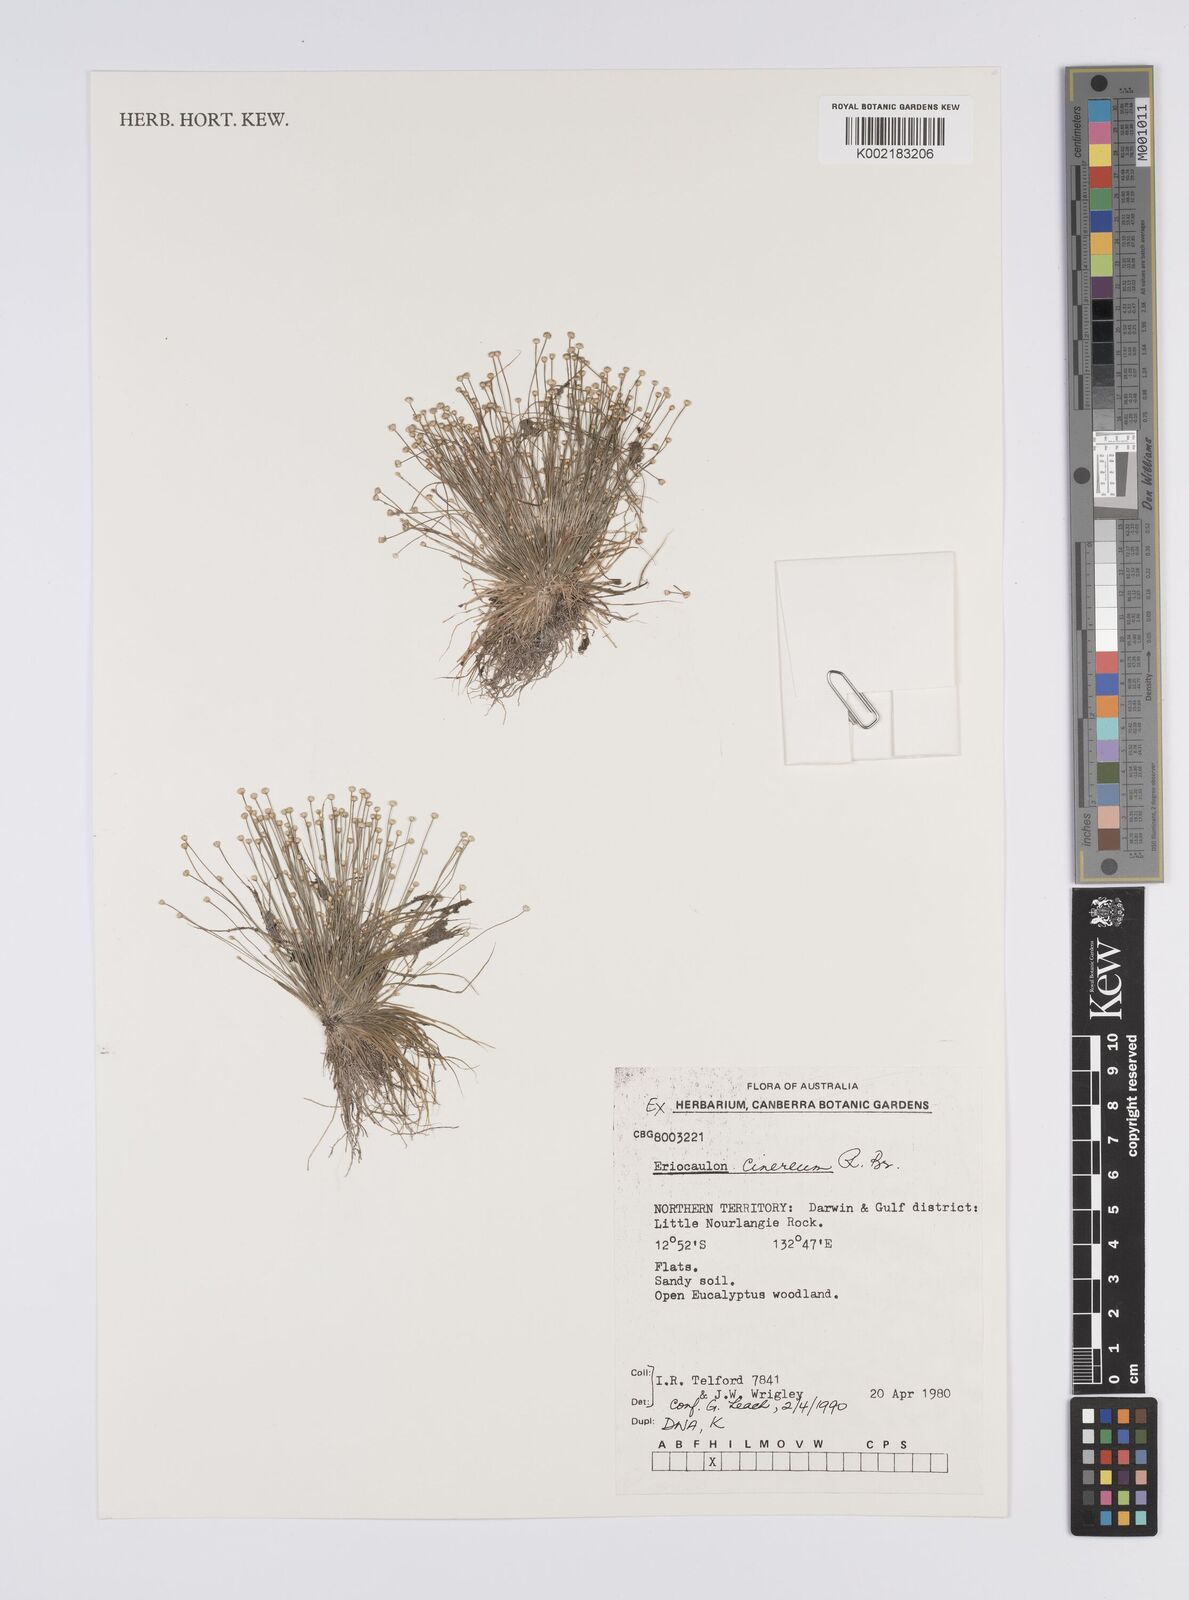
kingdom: Plantae
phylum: Tracheophyta
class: Liliopsida
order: Poales
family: Eriocaulaceae
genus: Eriocaulon
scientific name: Eriocaulon cinereum
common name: Ashy pipewort
